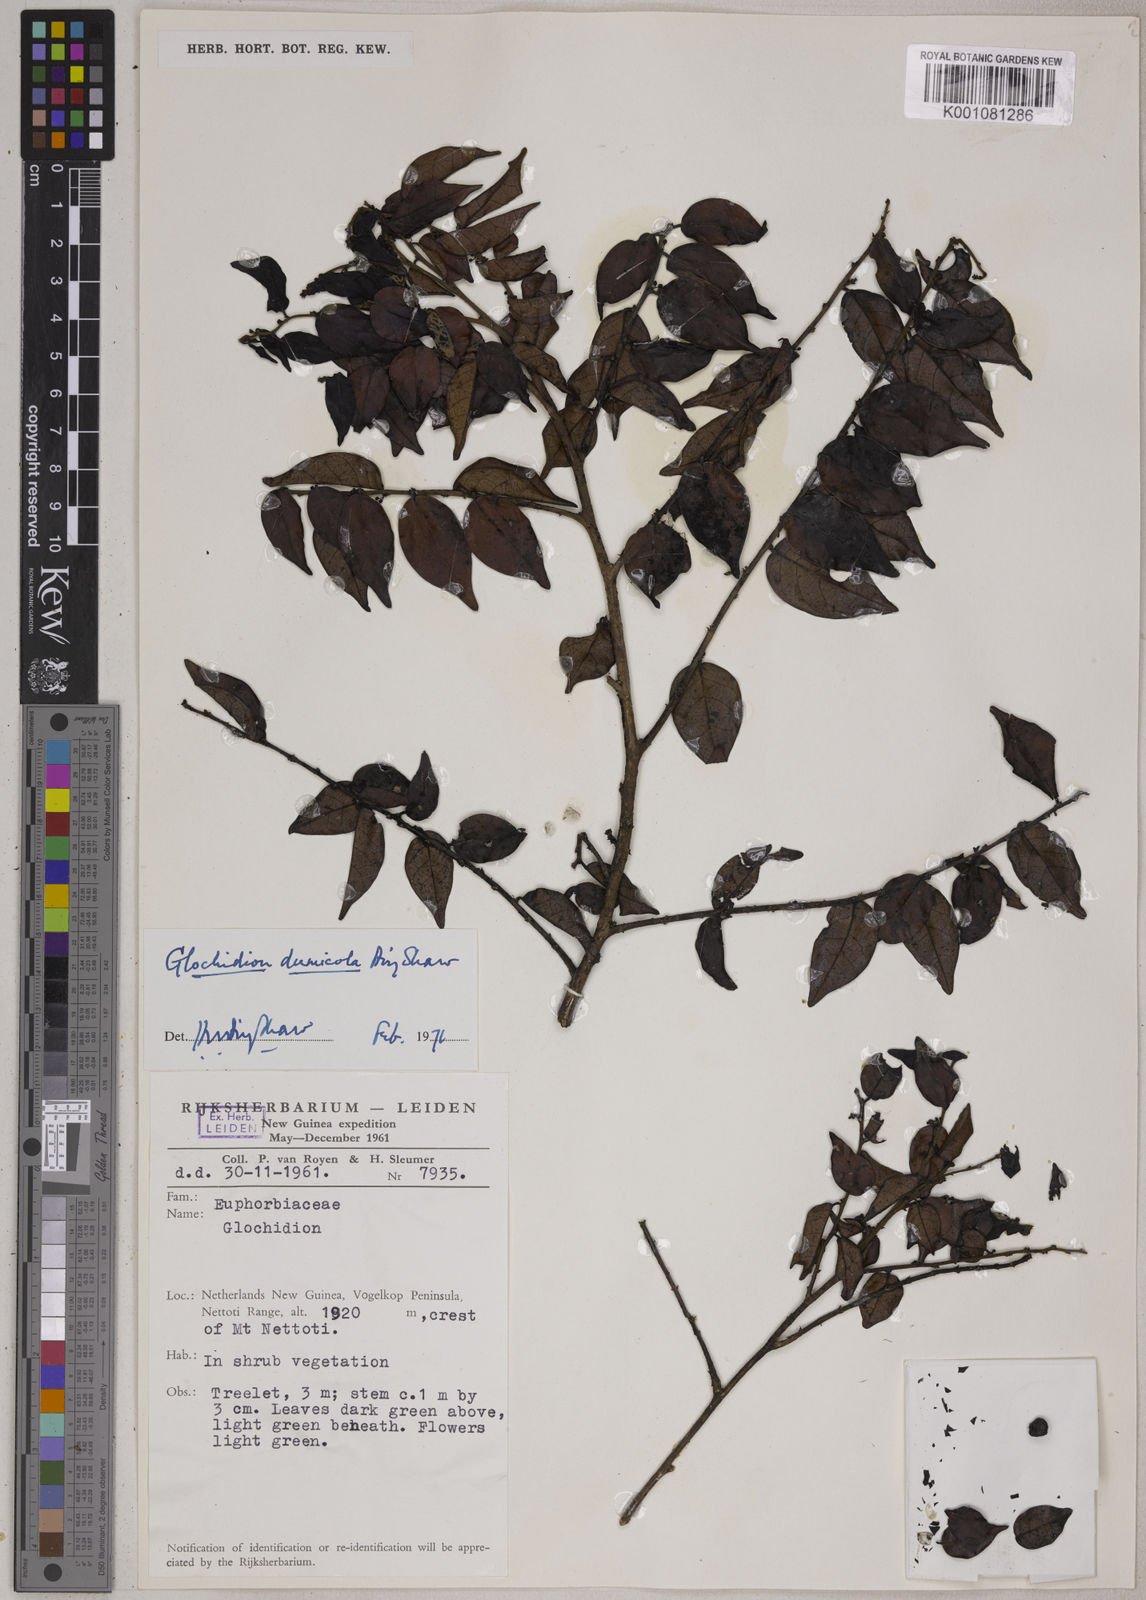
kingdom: Plantae
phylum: Tracheophyta
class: Magnoliopsida
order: Malpighiales
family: Phyllanthaceae
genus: Glochidion
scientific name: Glochidion dumicola
